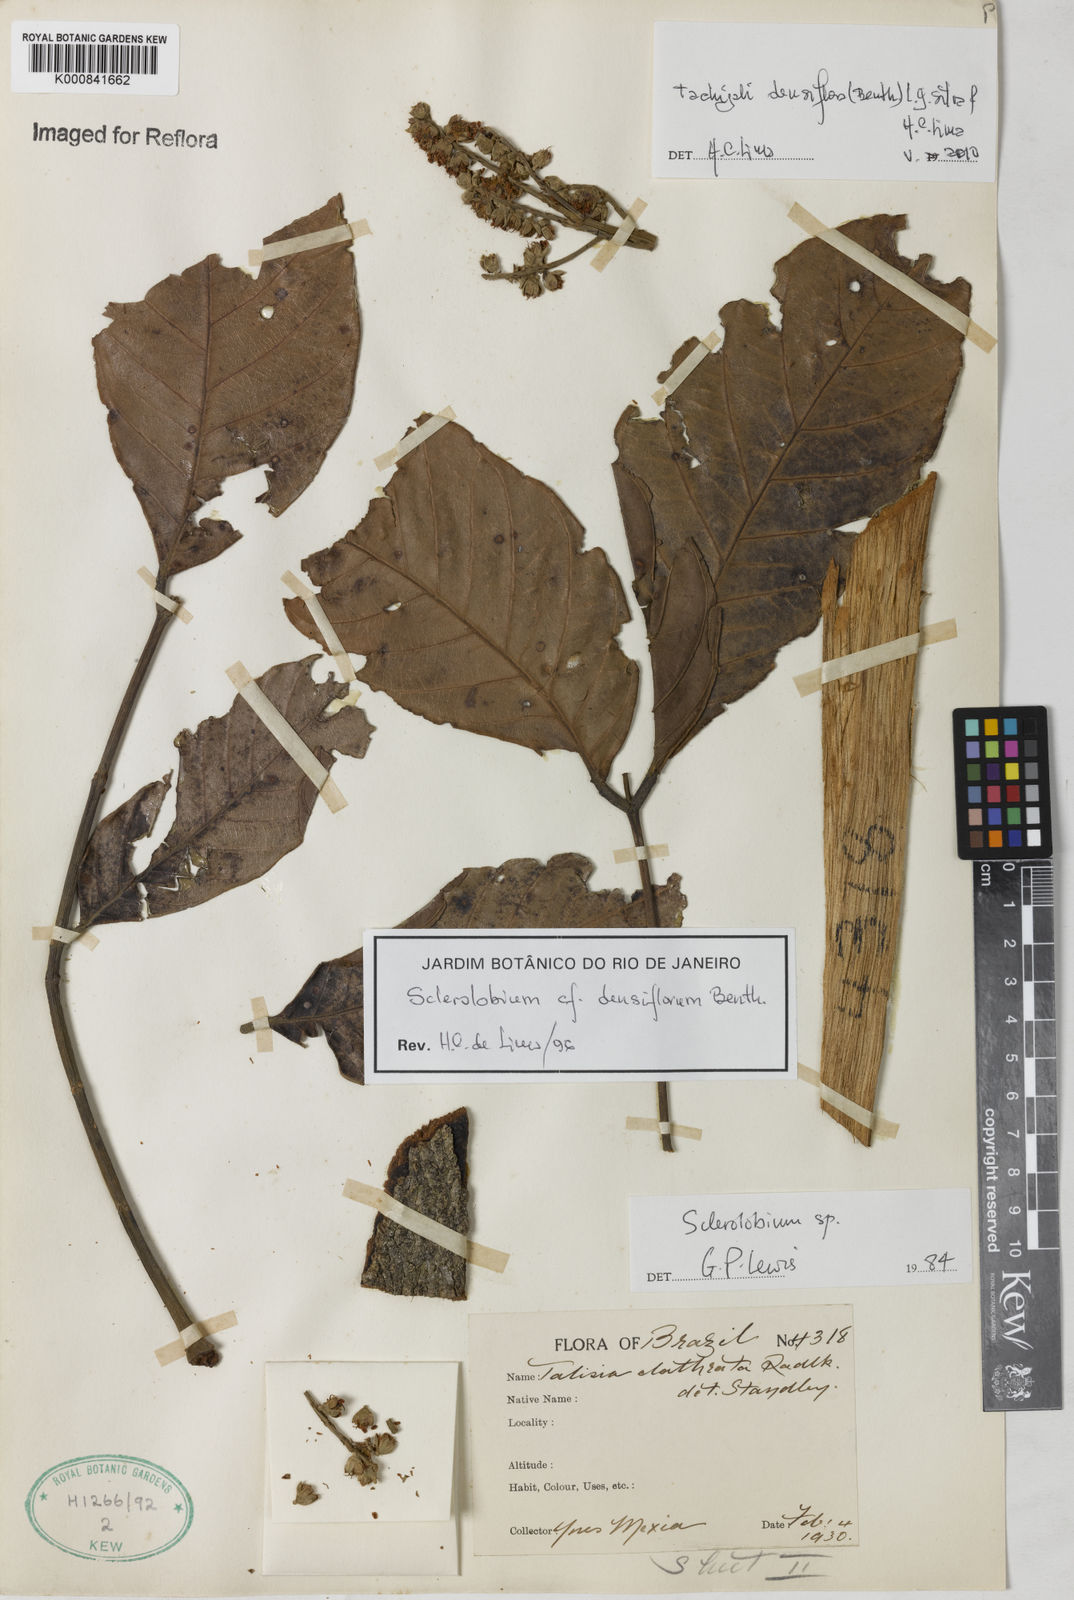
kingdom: Plantae
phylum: Tracheophyta
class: Magnoliopsida
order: Fabales
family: Fabaceae
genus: Tachigali
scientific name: Tachigali densiflora
